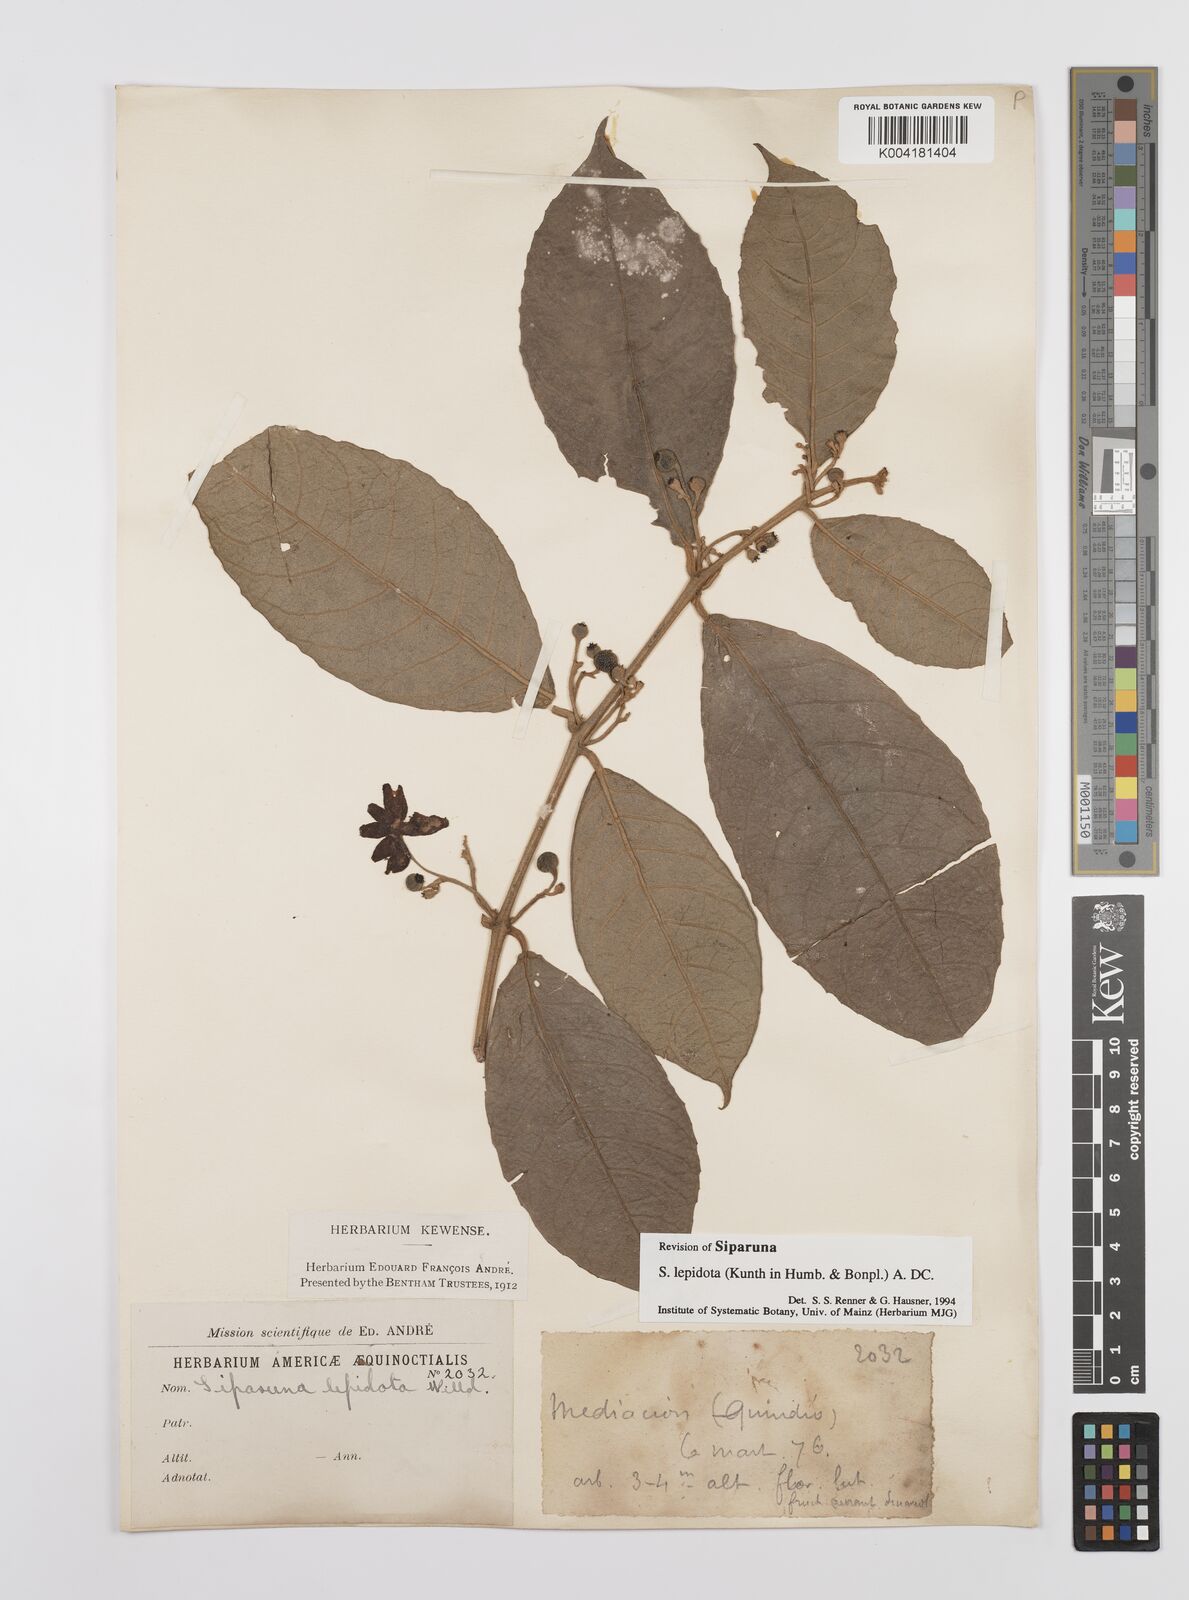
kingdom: Plantae
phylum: Tracheophyta
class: Magnoliopsida
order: Laurales
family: Siparunaceae
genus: Siparuna
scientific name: Siparuna lepidota
